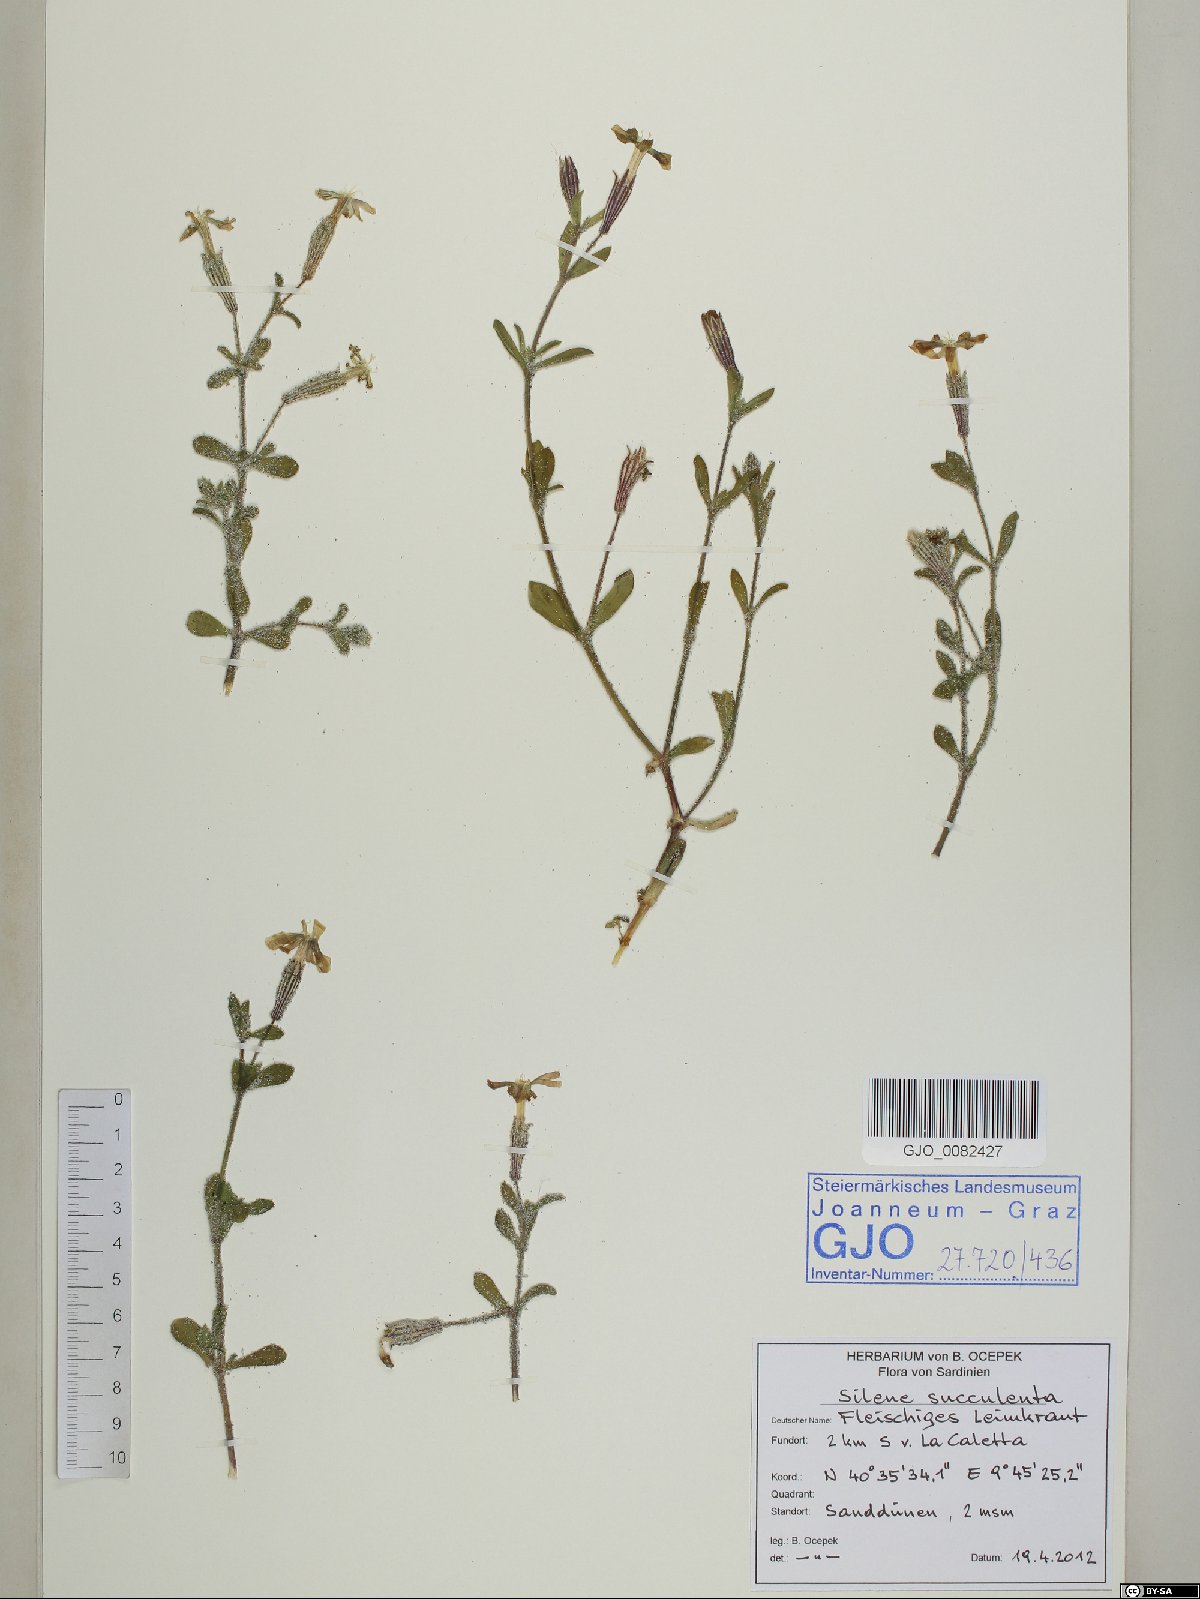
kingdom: Plantae
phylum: Tracheophyta
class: Magnoliopsida
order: Caryophyllales
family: Caryophyllaceae
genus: Silene
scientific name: Silene succulenta
